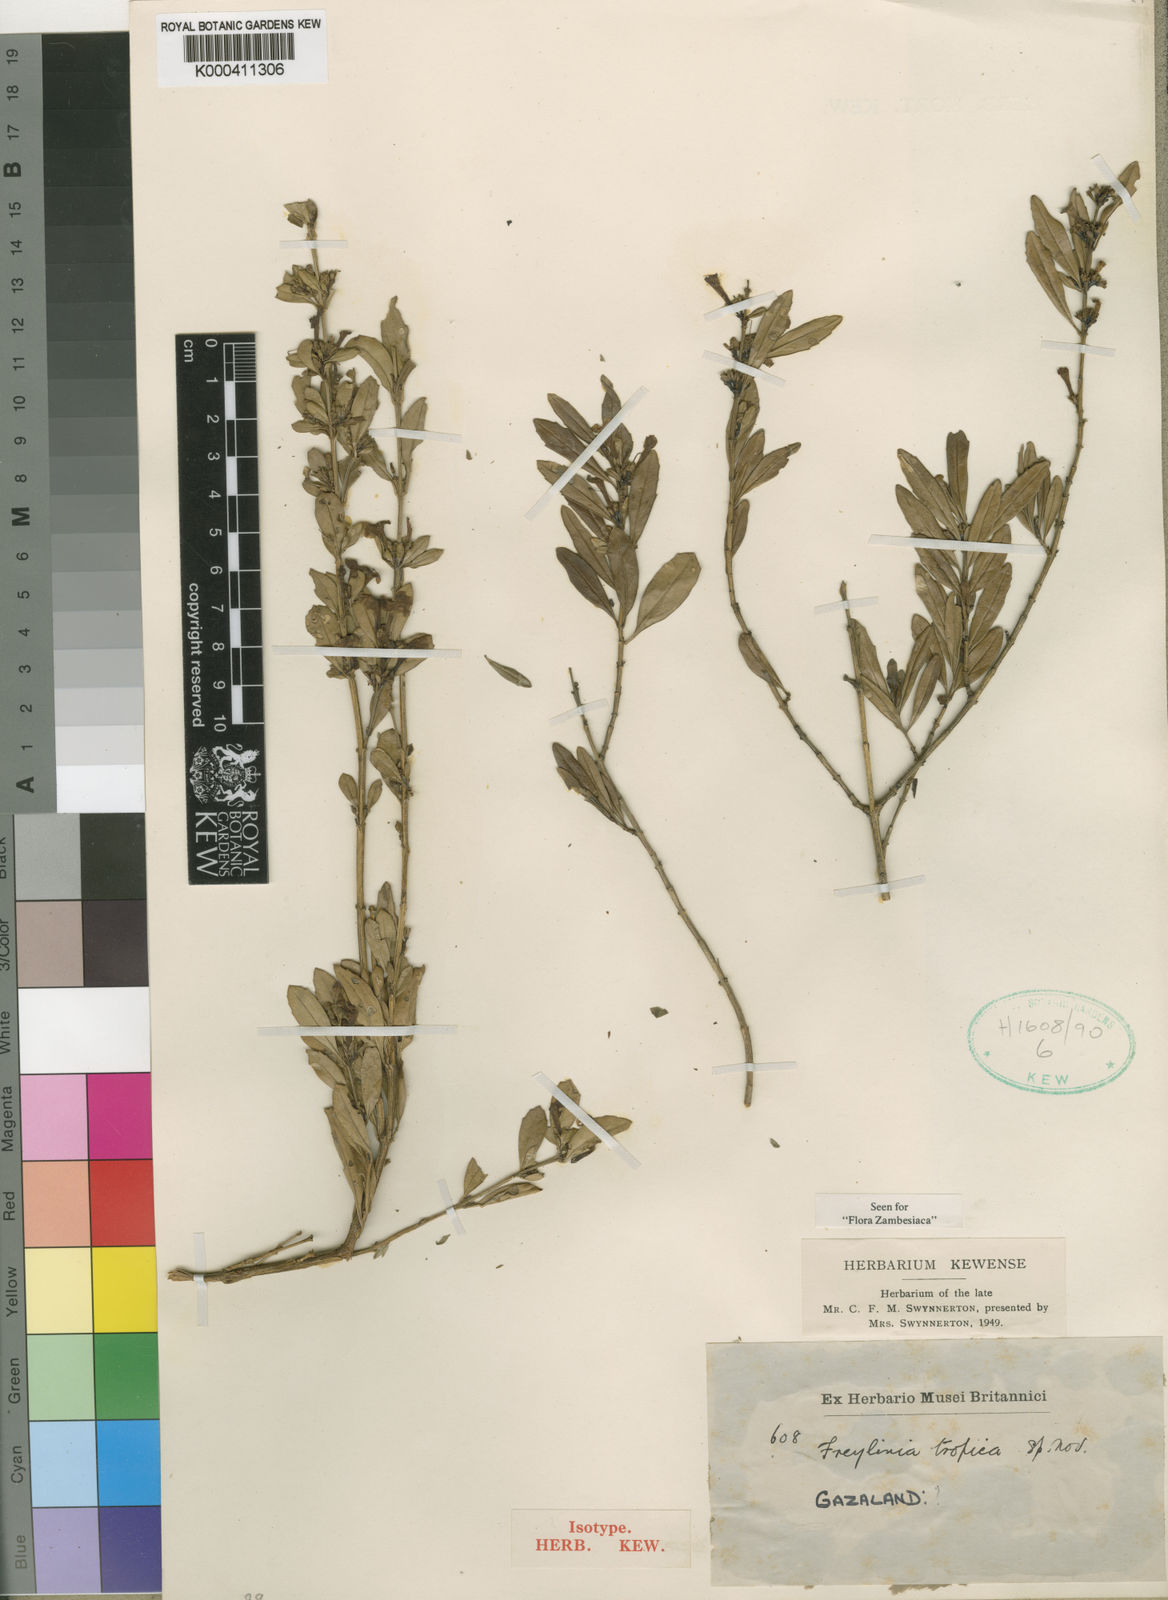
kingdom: Plantae
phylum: Tracheophyta
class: Magnoliopsida
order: Lamiales
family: Scrophulariaceae
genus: Freylinia
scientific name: Freylinia tropica
